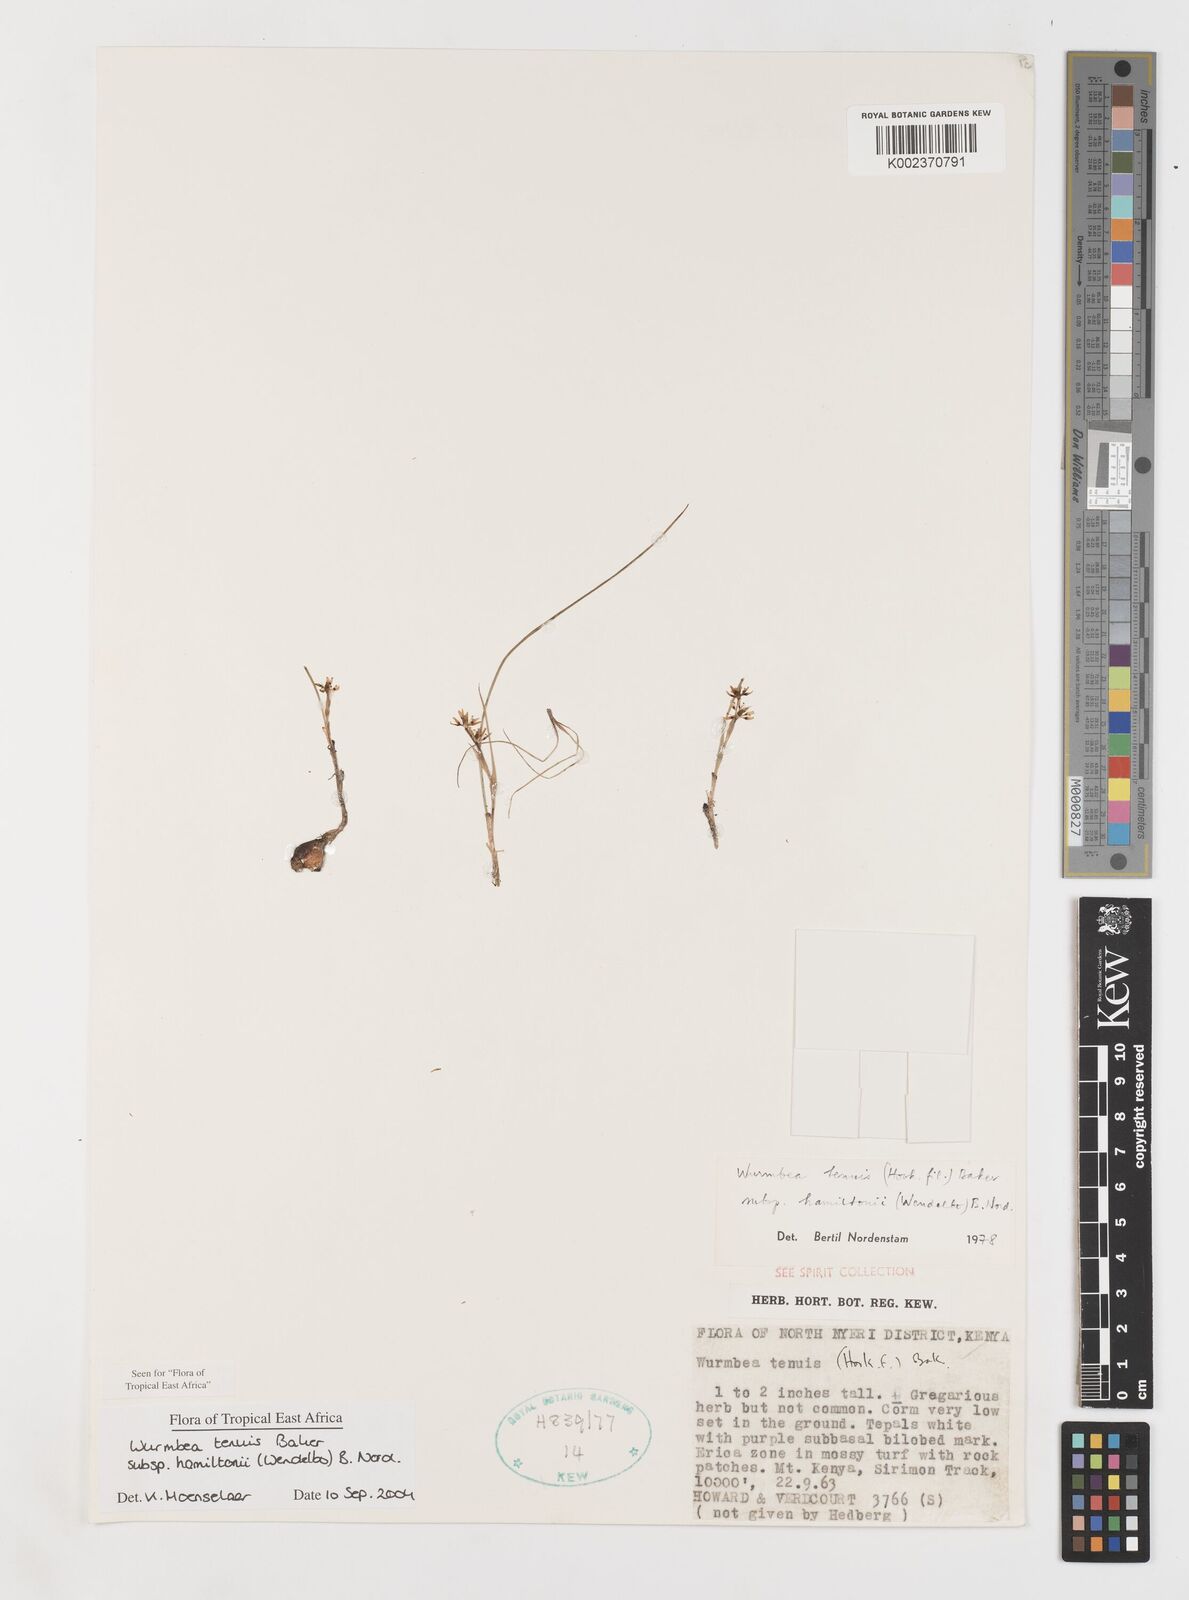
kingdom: Plantae
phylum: Tracheophyta
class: Liliopsida
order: Liliales
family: Colchicaceae
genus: Wurmbea
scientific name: Wurmbea tenuis
